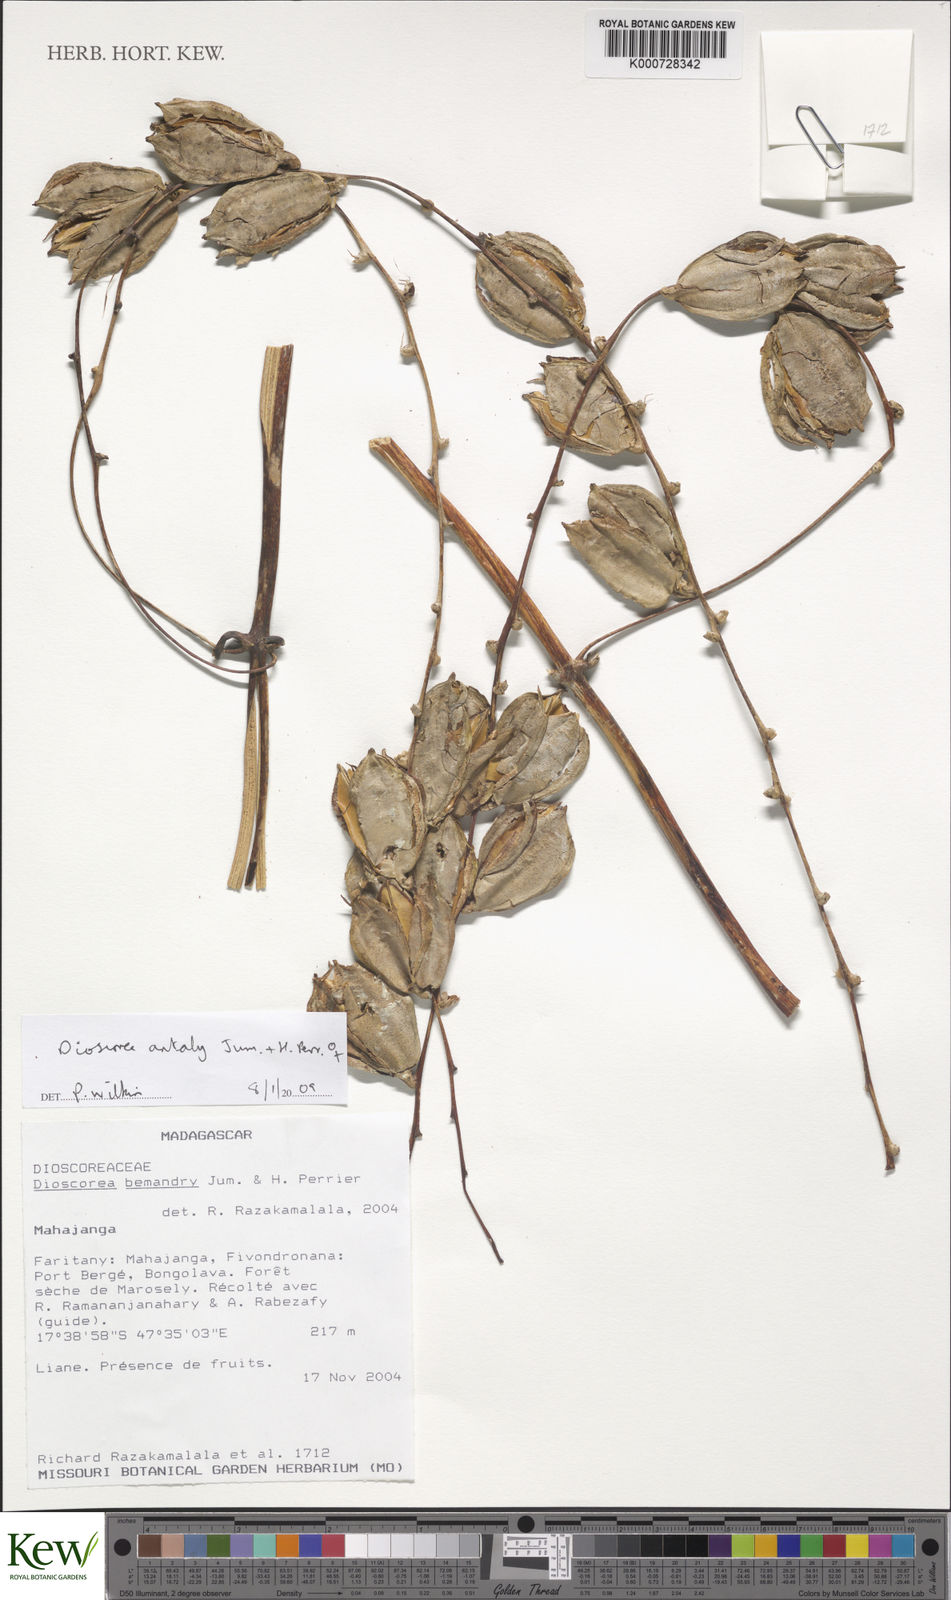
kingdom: Plantae
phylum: Tracheophyta
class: Liliopsida
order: Dioscoreales
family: Dioscoreaceae
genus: Dioscorea
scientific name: Dioscorea antaly
